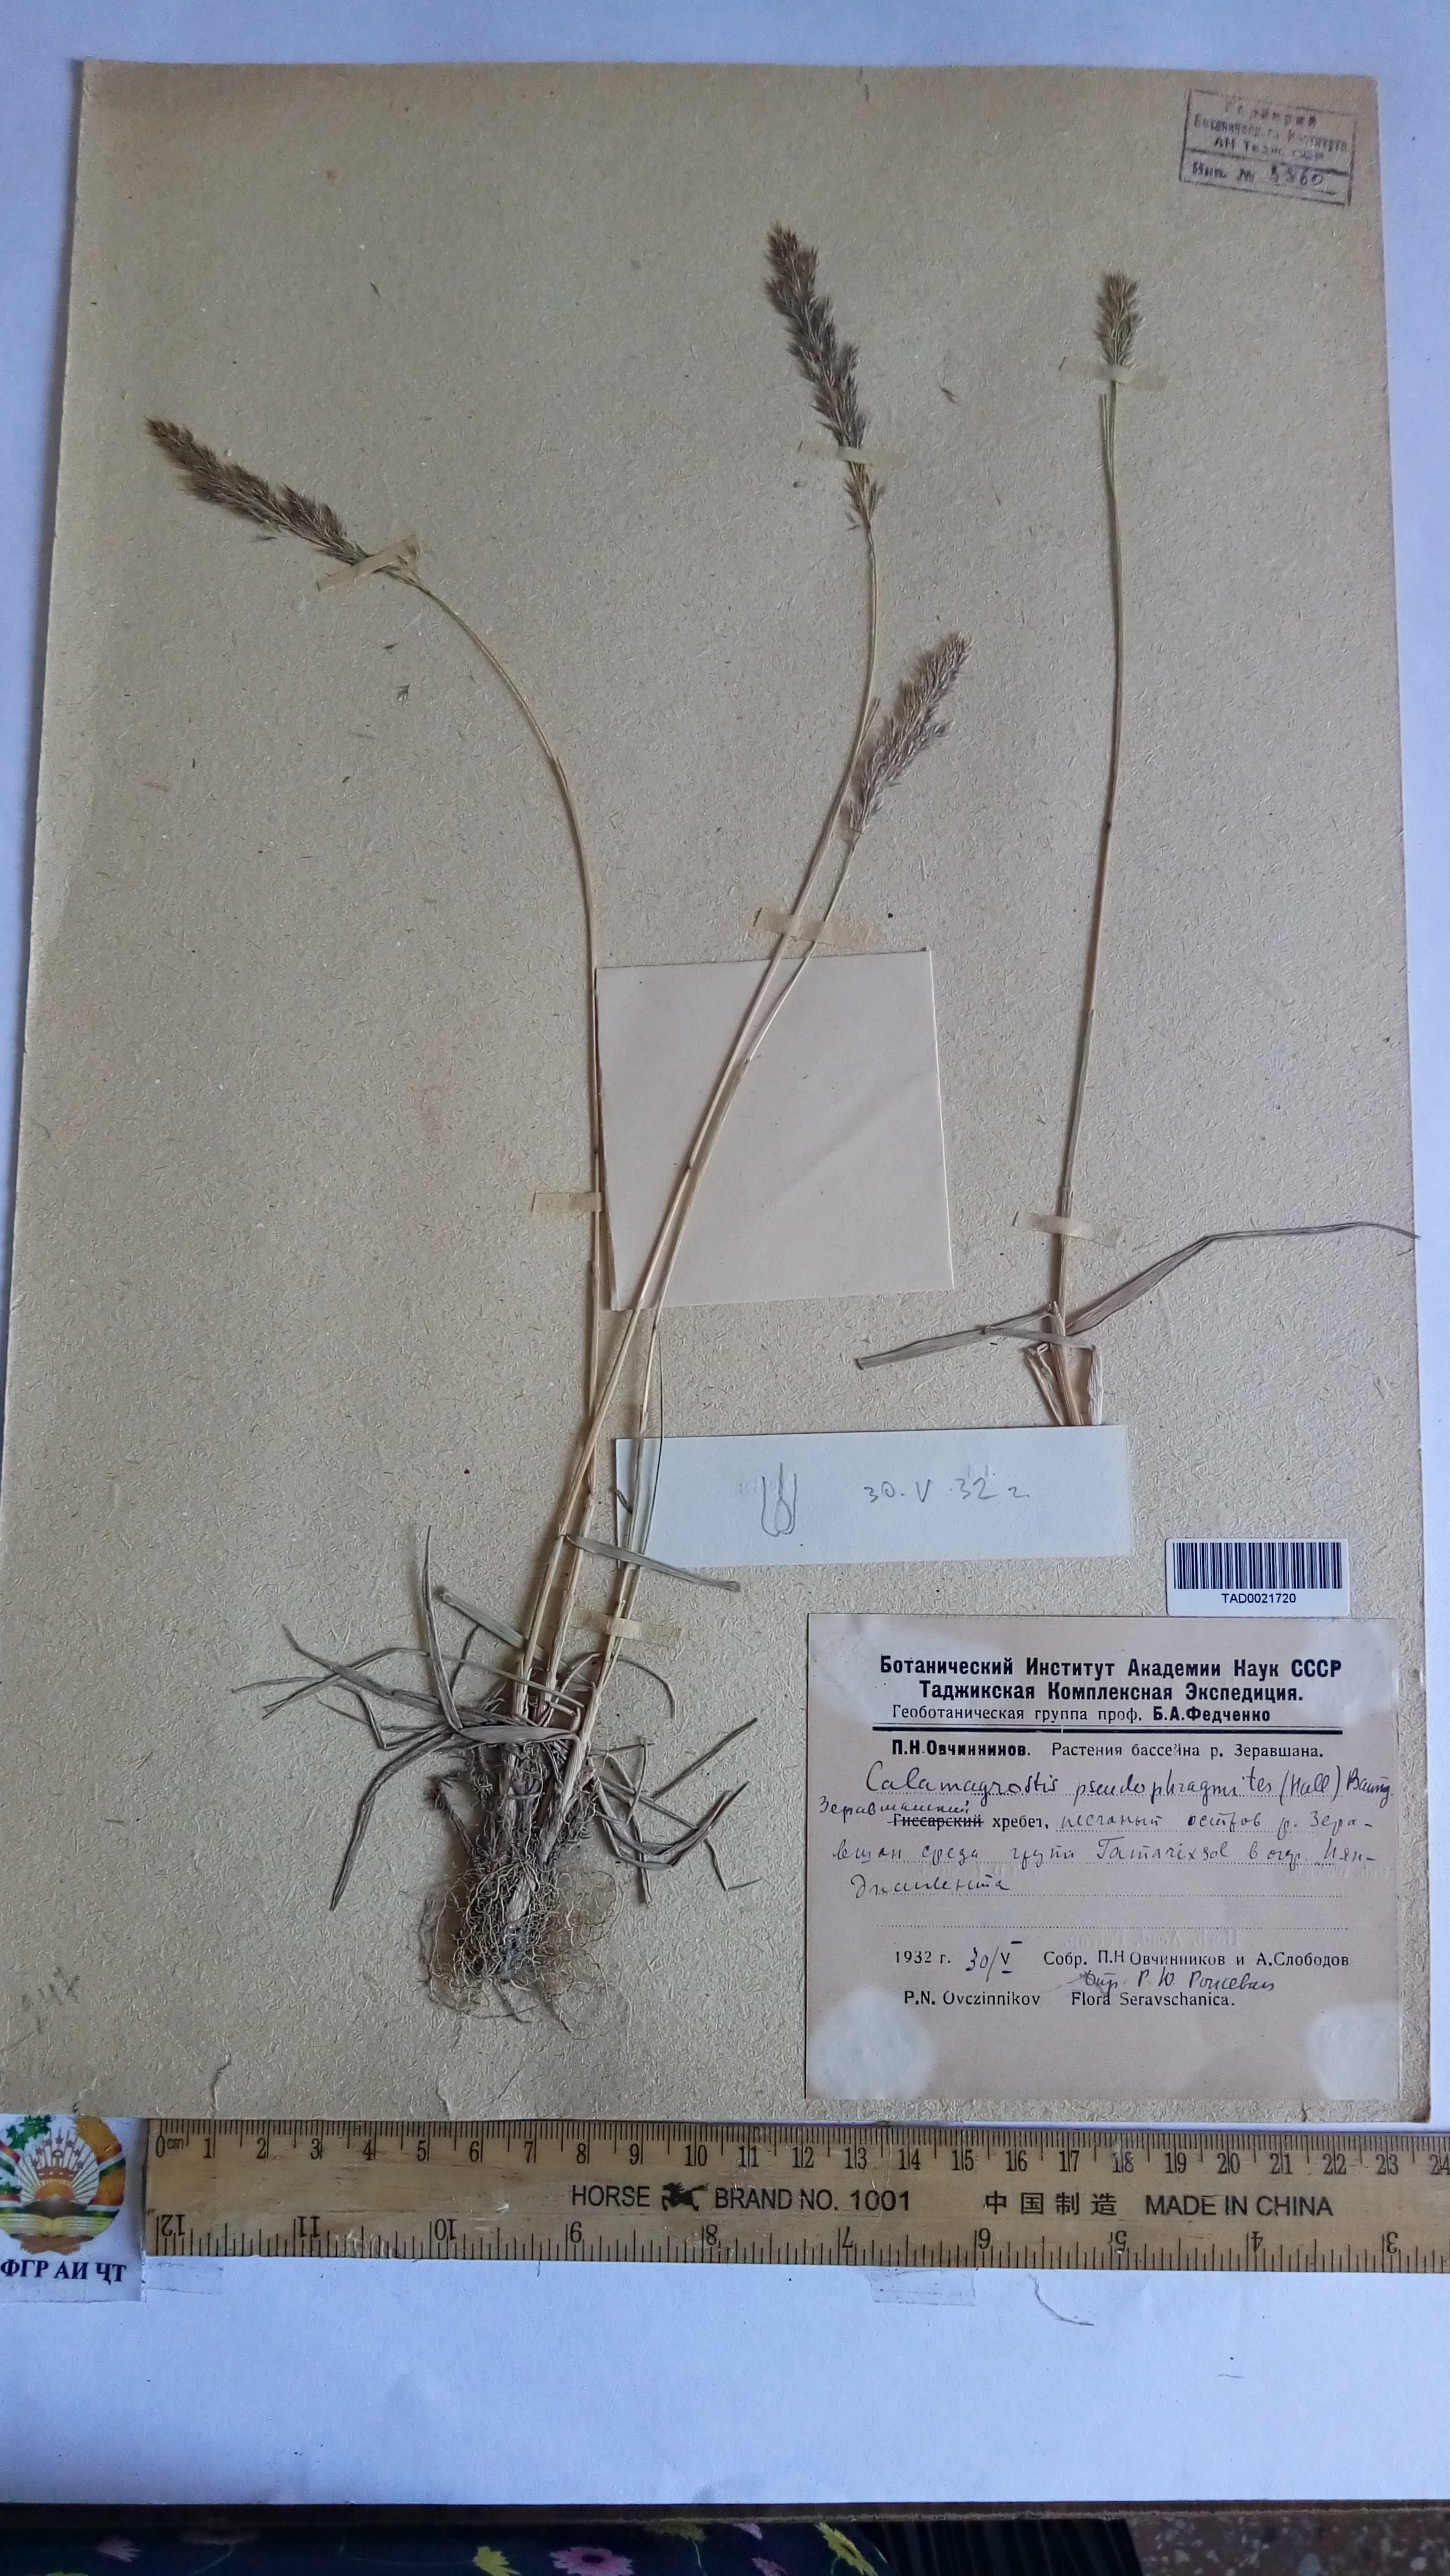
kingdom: Plantae
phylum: Tracheophyta
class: Liliopsida
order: Poales
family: Poaceae
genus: Calamagrostis
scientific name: Calamagrostis pseudophragmites
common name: Coastal small-reed
